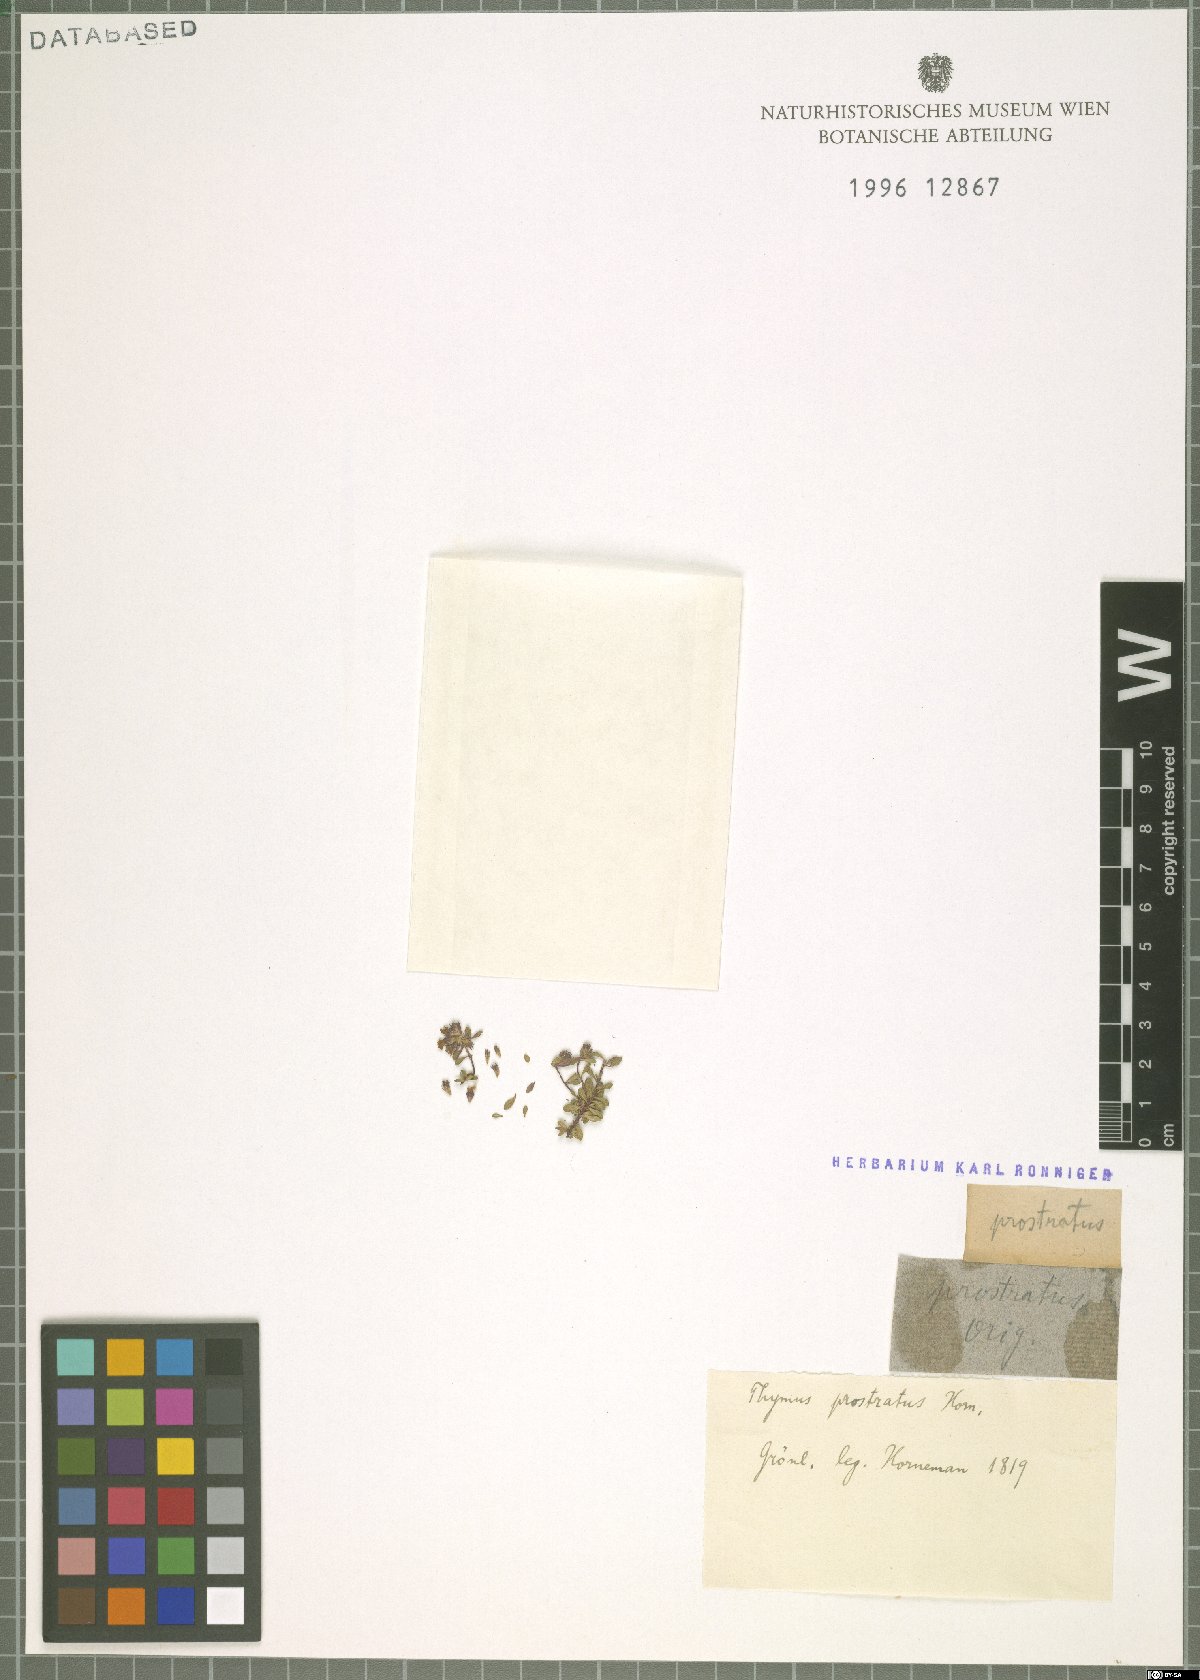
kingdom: Plantae
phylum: Tracheophyta
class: Magnoliopsida
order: Lamiales
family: Lamiaceae
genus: Thymus
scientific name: Thymus
